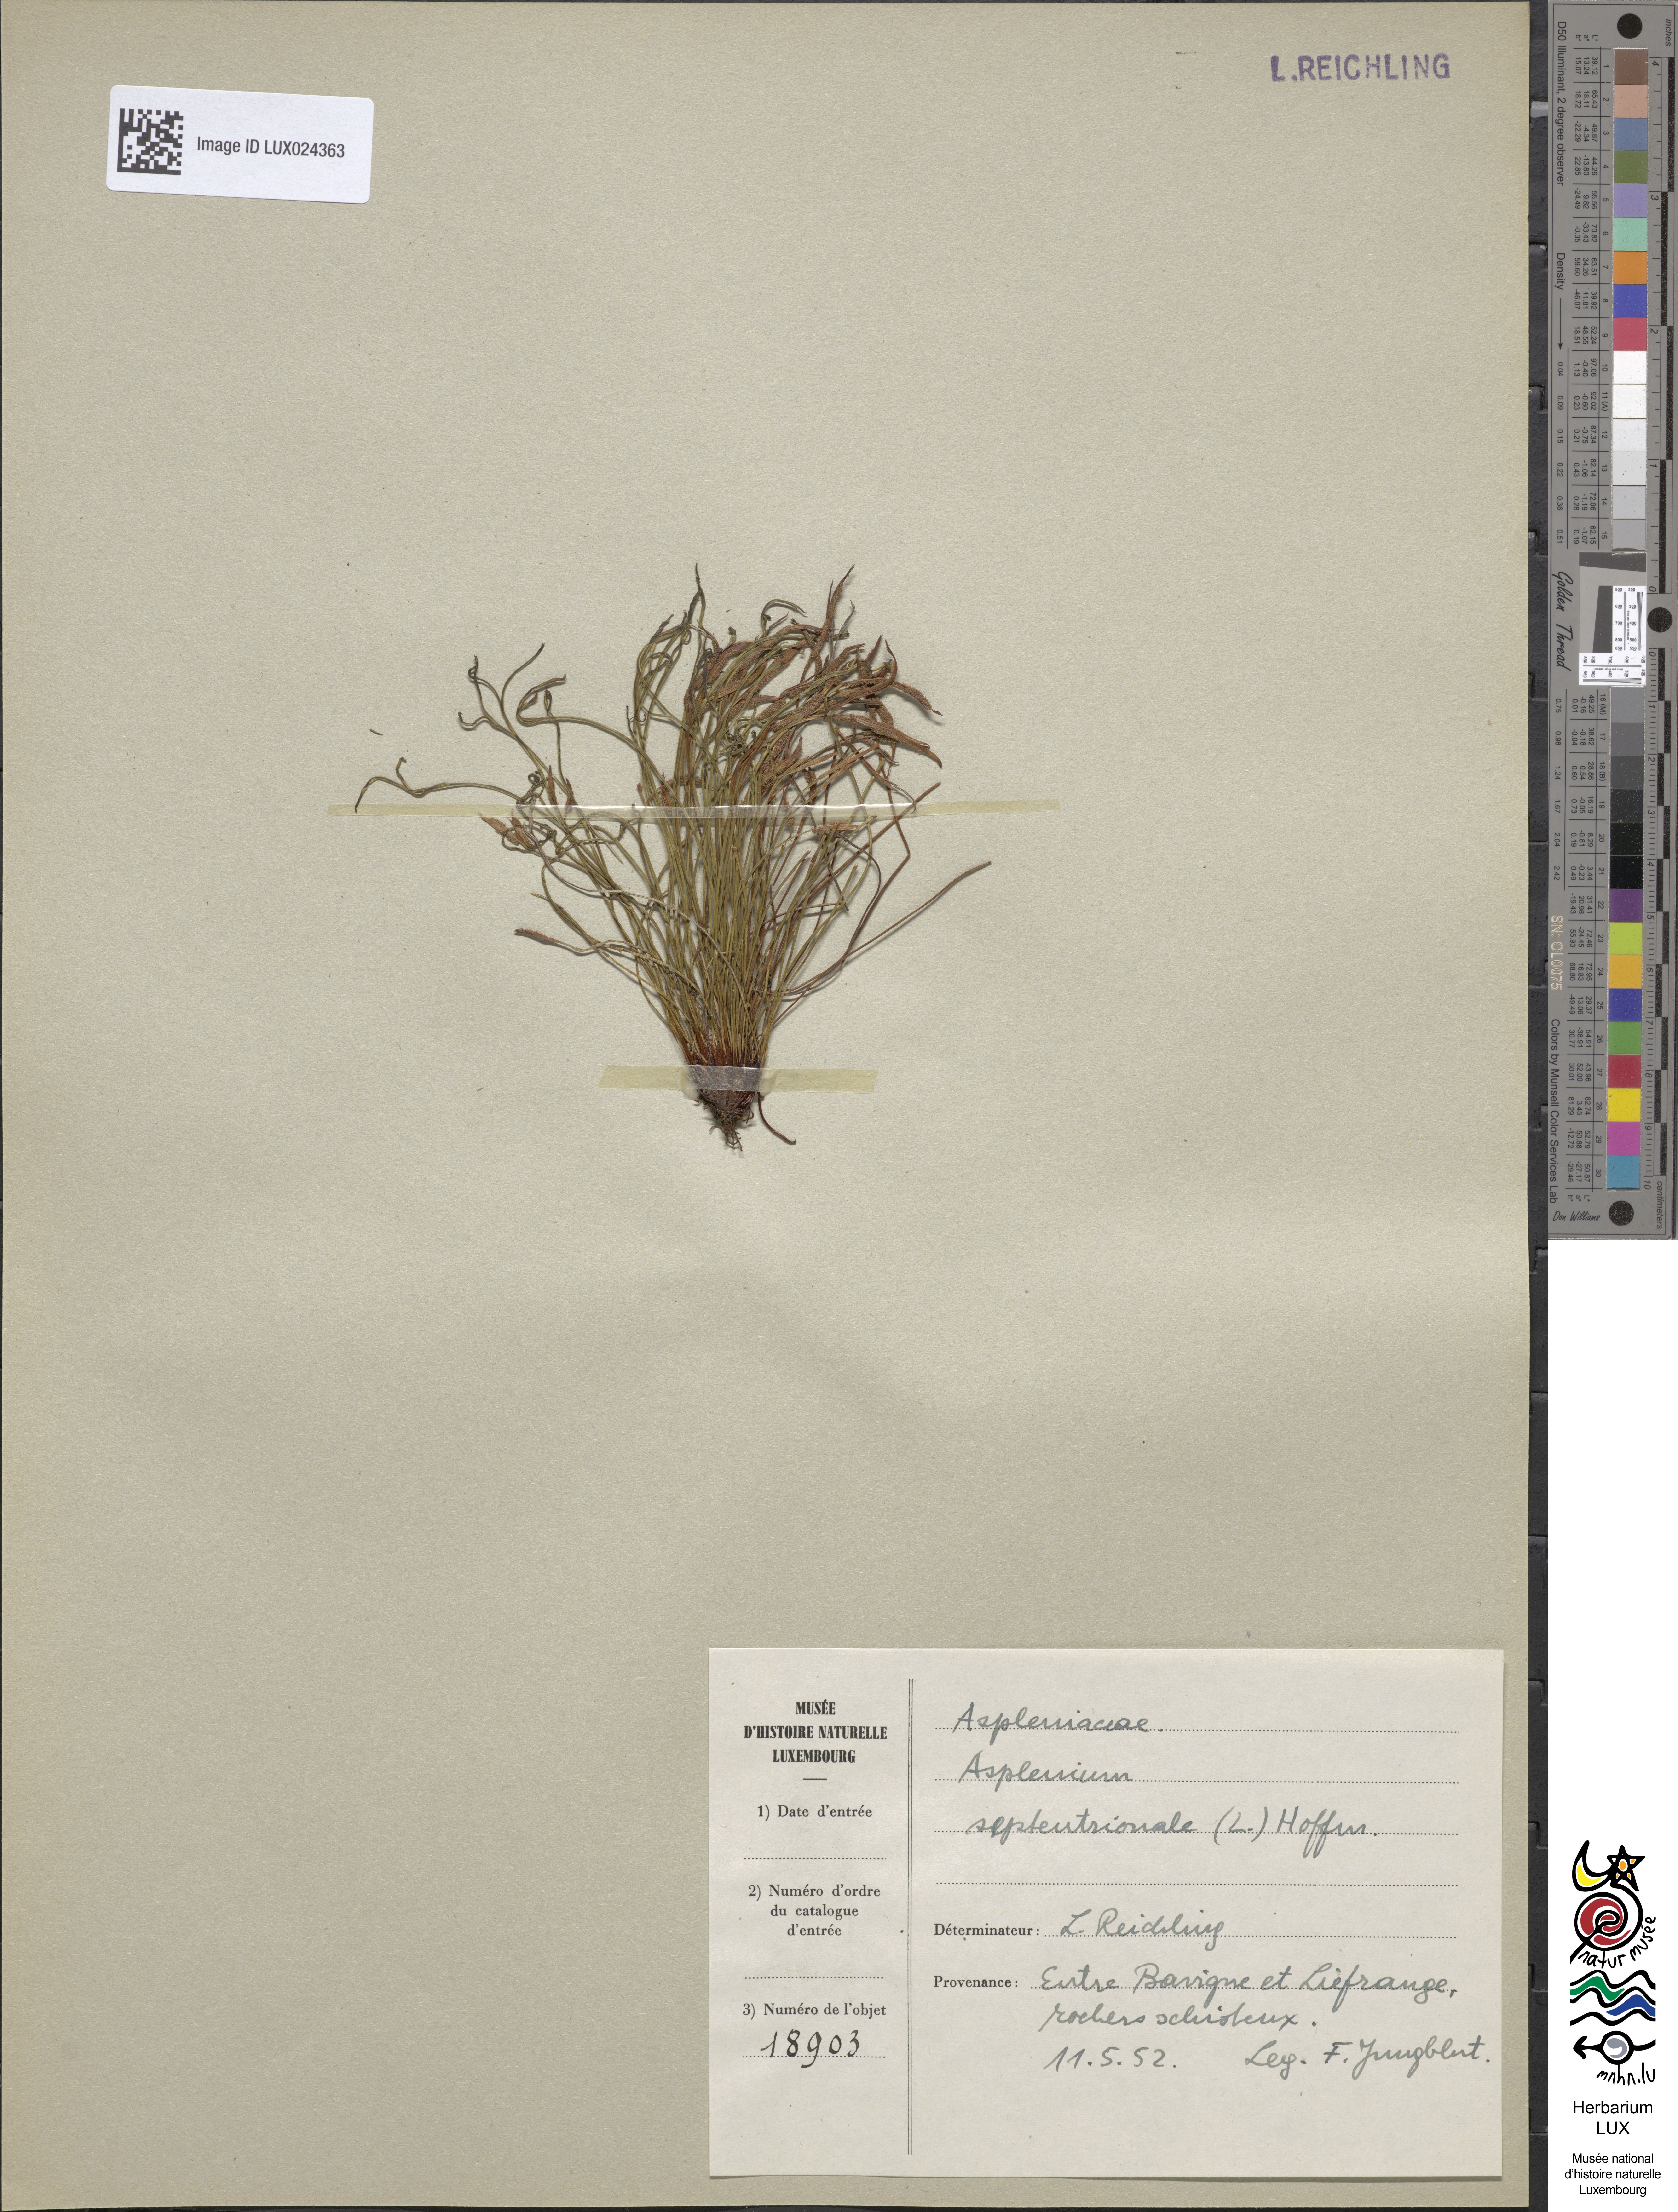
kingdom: Plantae
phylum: Tracheophyta
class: Polypodiopsida
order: Polypodiales
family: Aspleniaceae
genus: Asplenium
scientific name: Asplenium septentrionale
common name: Forked spleenwort
